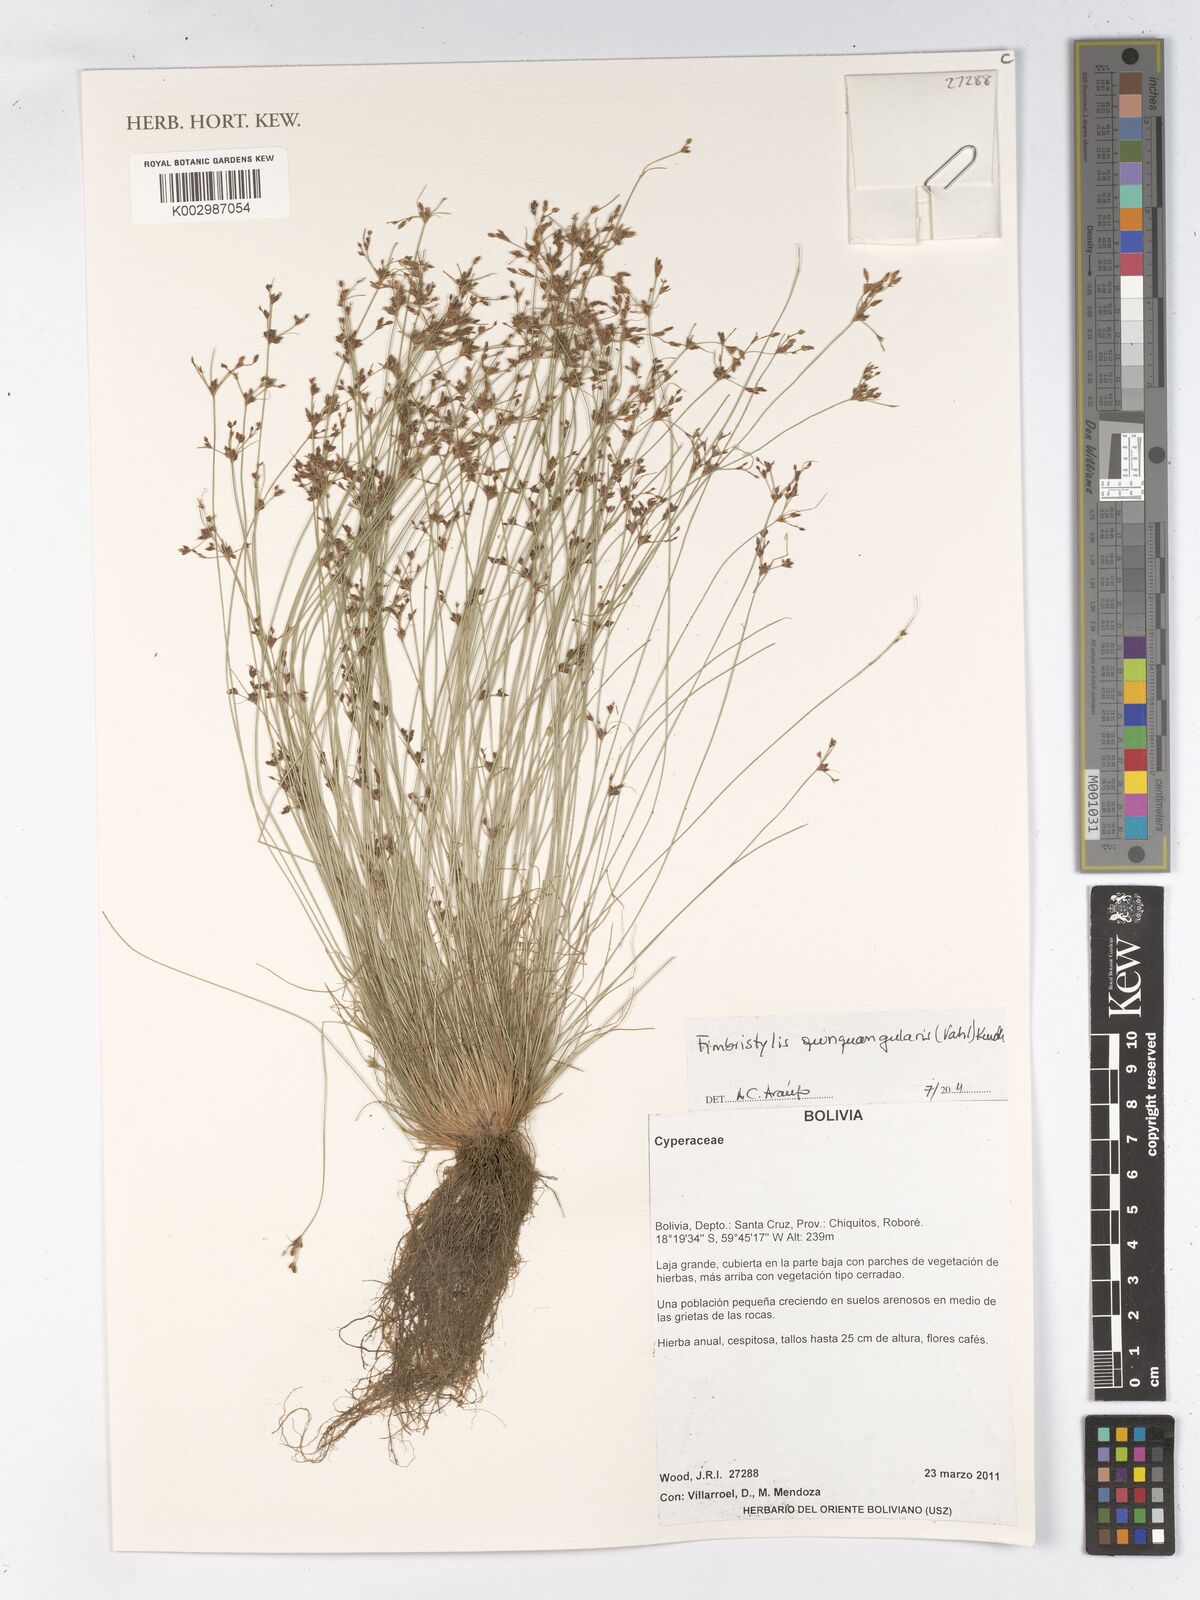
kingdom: Plantae
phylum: Tracheophyta
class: Liliopsida
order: Poales
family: Cyperaceae
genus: Fimbristylis
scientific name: Fimbristylis quinquangularis
